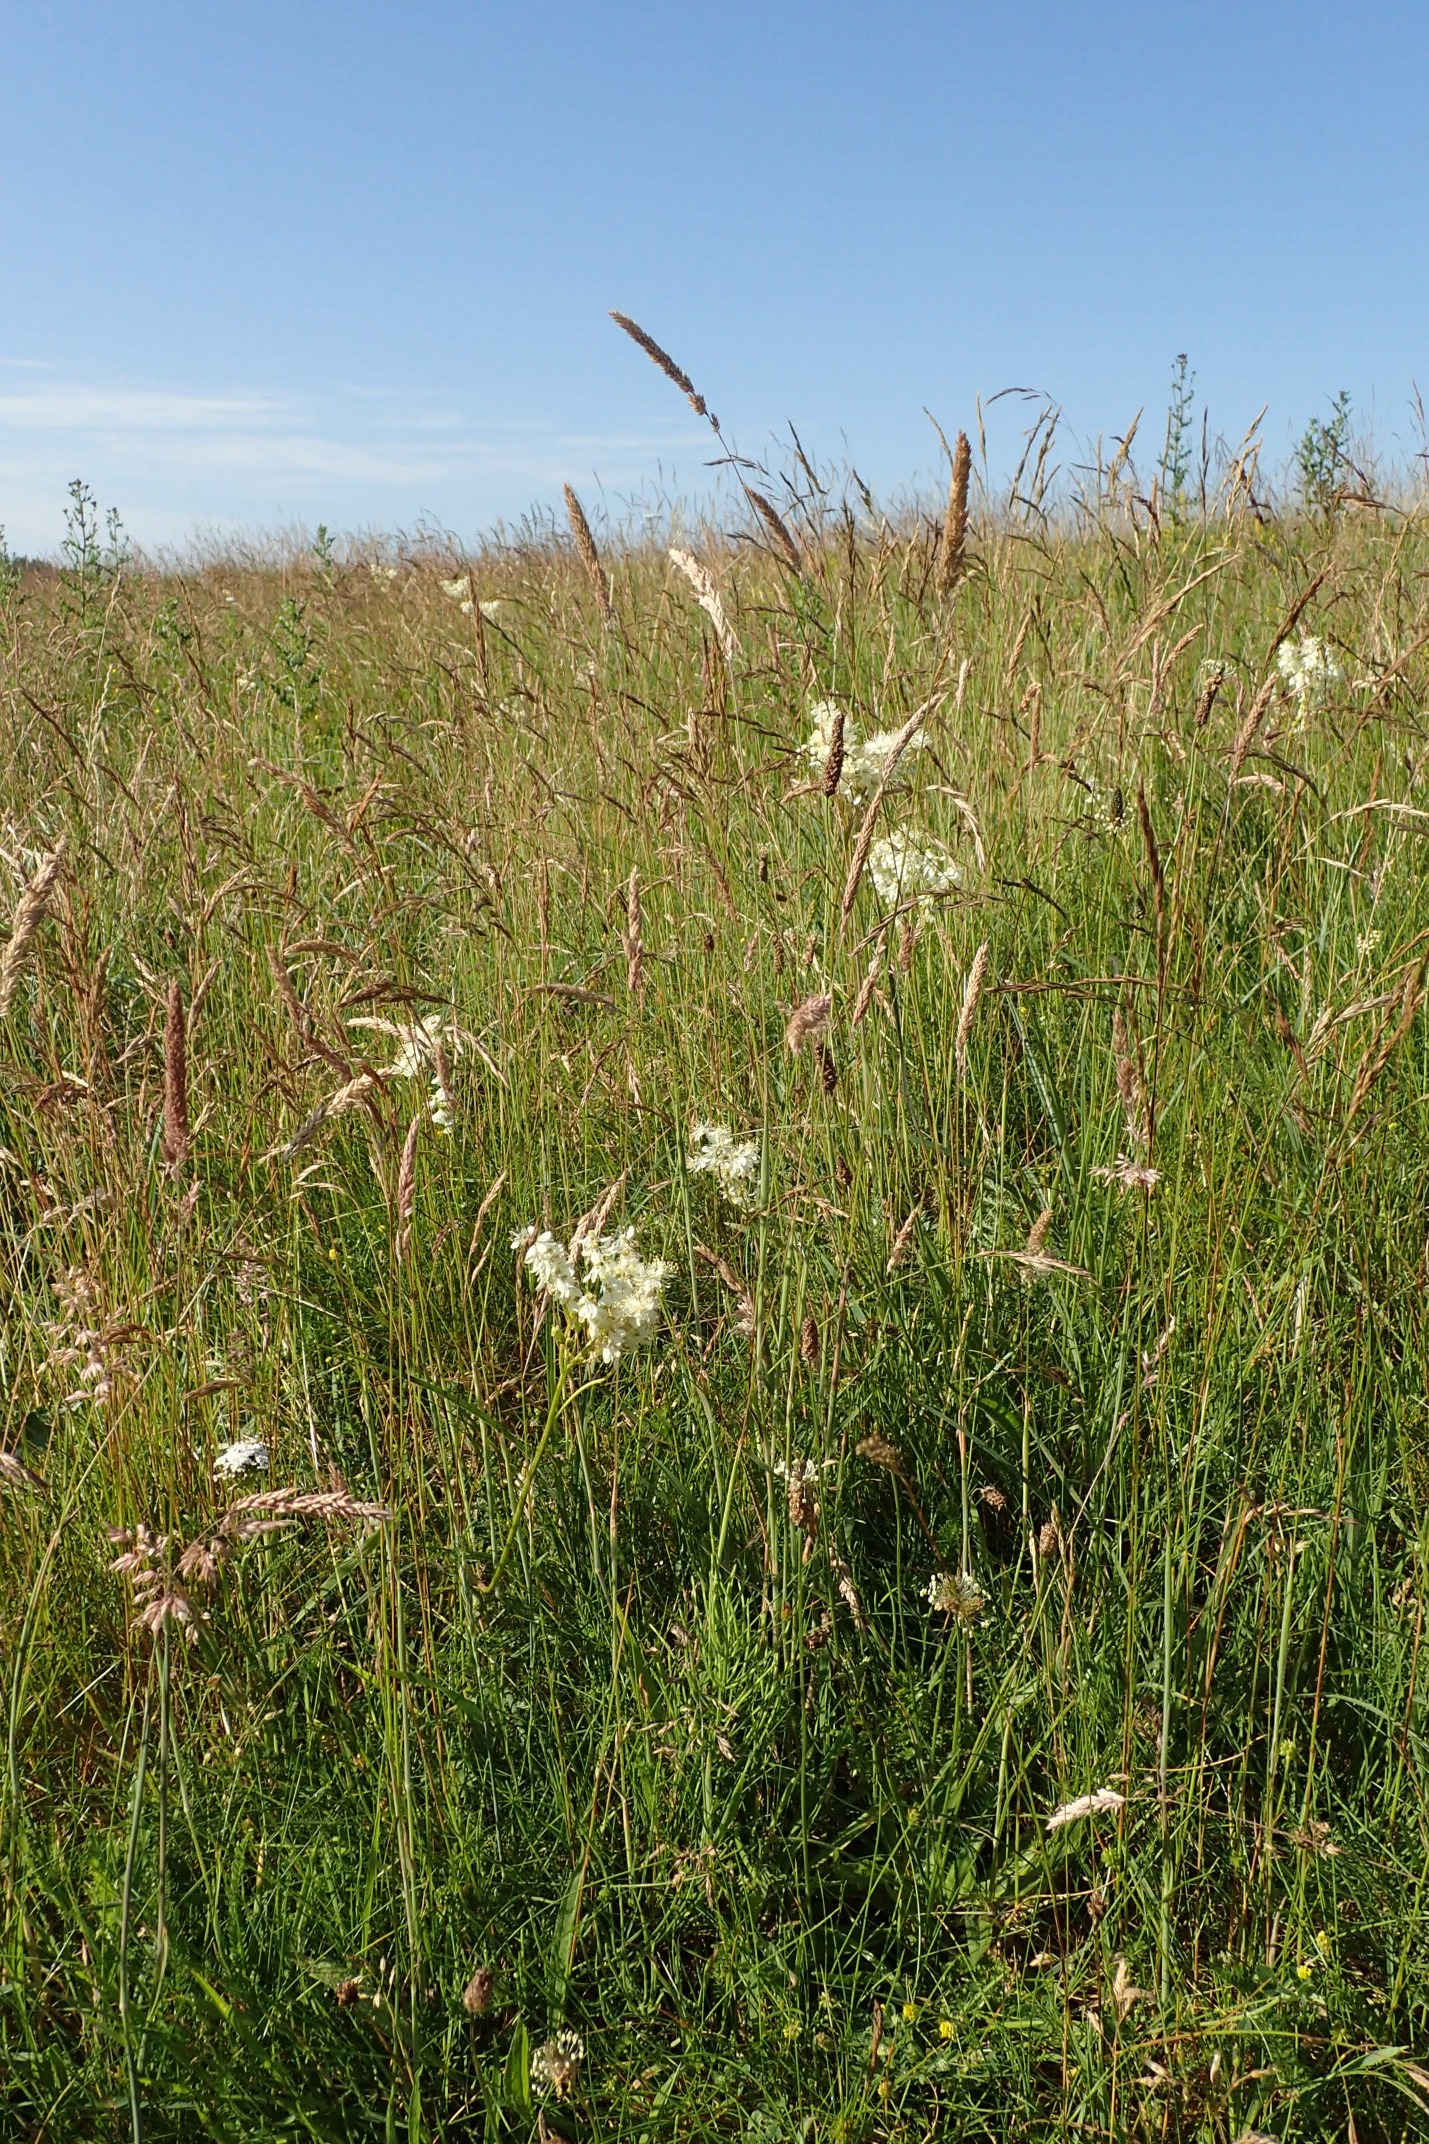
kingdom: Plantae
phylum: Tracheophyta
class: Magnoliopsida
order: Rosales
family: Rosaceae
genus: Filipendula
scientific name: Filipendula vulgaris
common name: Knoldet mjødurt
